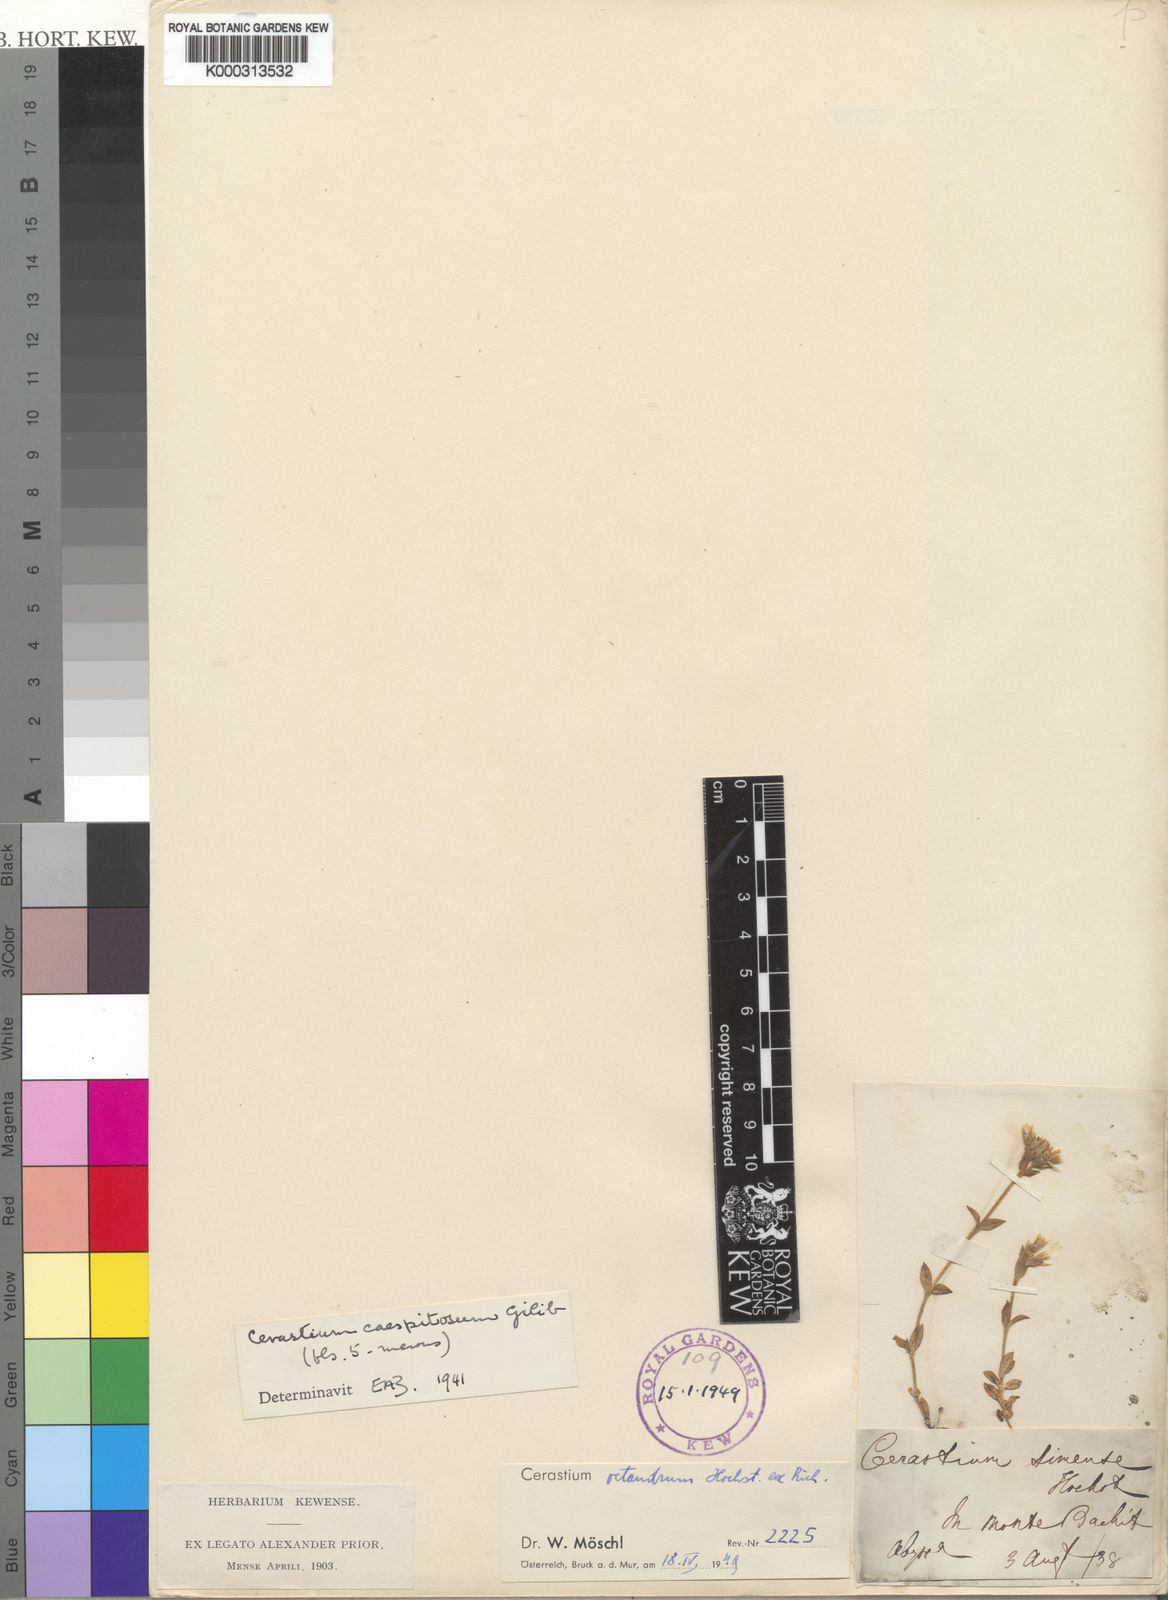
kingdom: Plantae
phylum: Tracheophyta
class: Magnoliopsida
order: Caryophyllales
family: Caryophyllaceae
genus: Cerastium
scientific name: Cerastium octandrum
